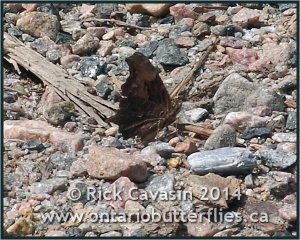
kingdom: Animalia
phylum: Arthropoda
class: Insecta
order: Lepidoptera
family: Nymphalidae
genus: Polygonia
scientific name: Polygonia progne
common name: Gray Comma
